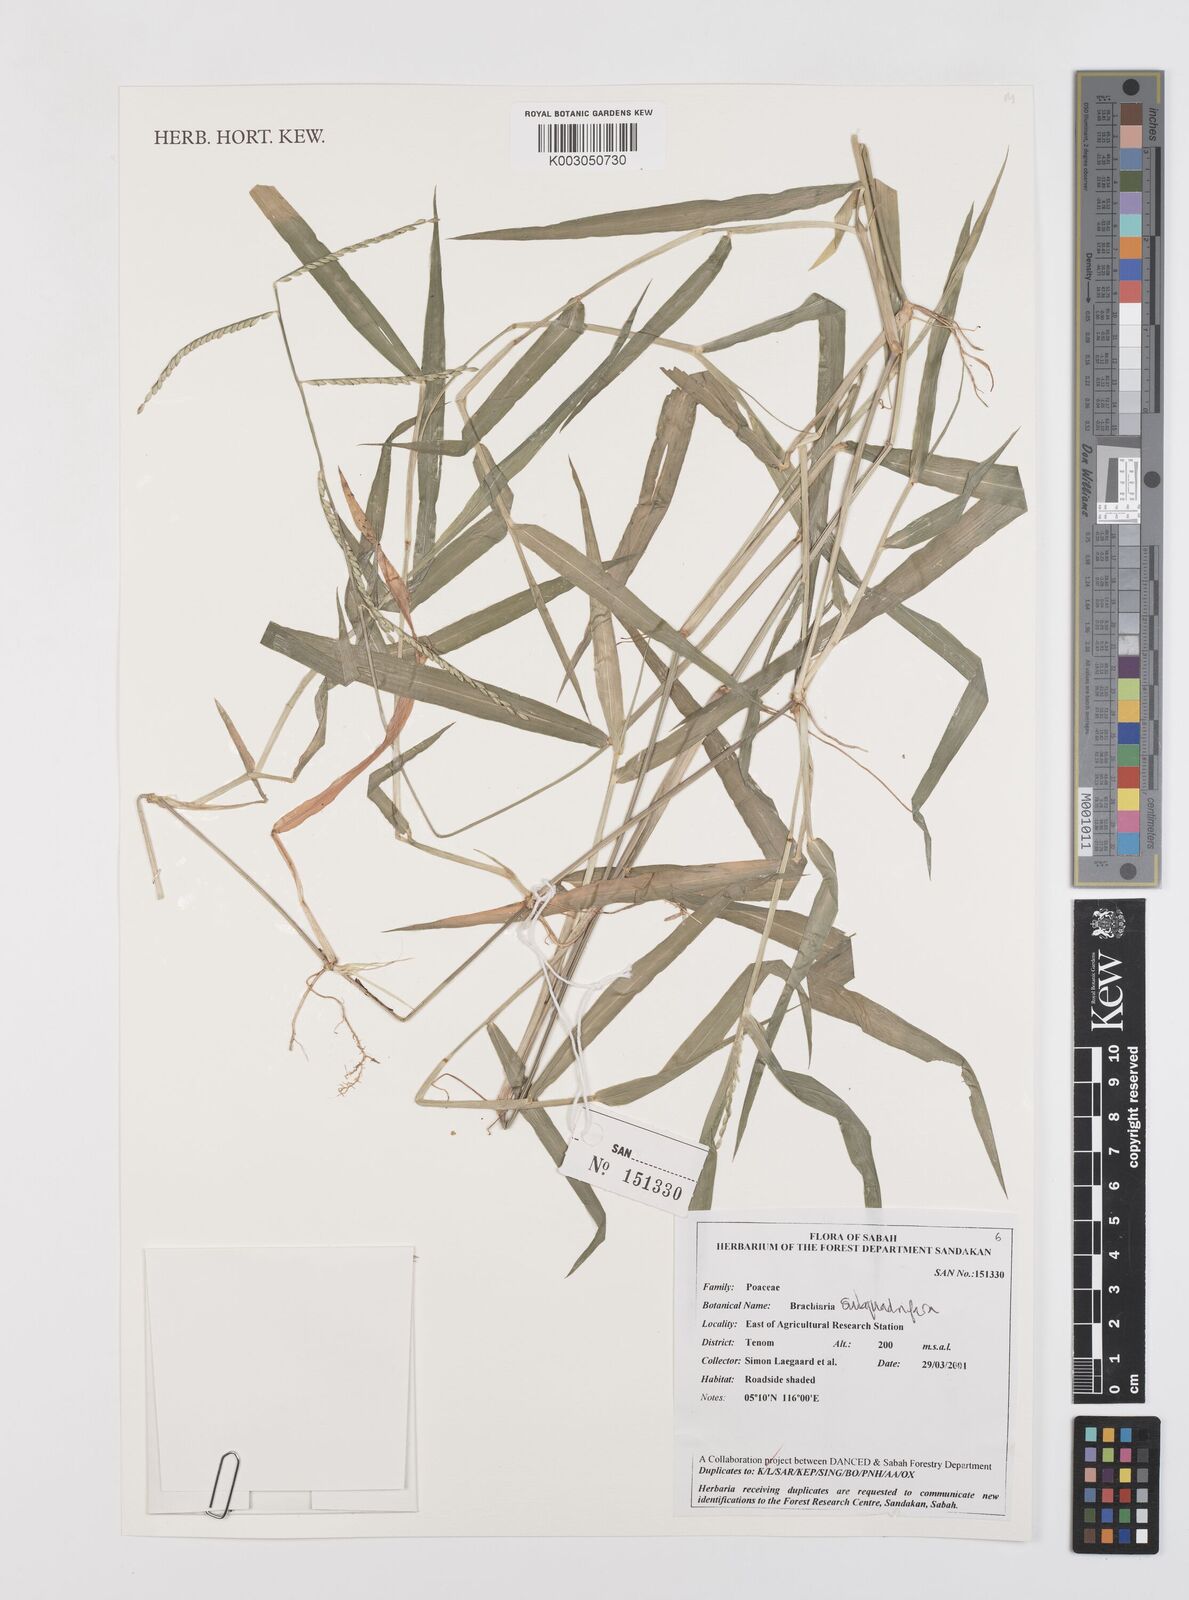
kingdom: Plantae
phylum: Tracheophyta
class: Liliopsida
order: Poales
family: Poaceae
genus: Urochloa
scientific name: Urochloa subquadripara
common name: Armgrass millet
